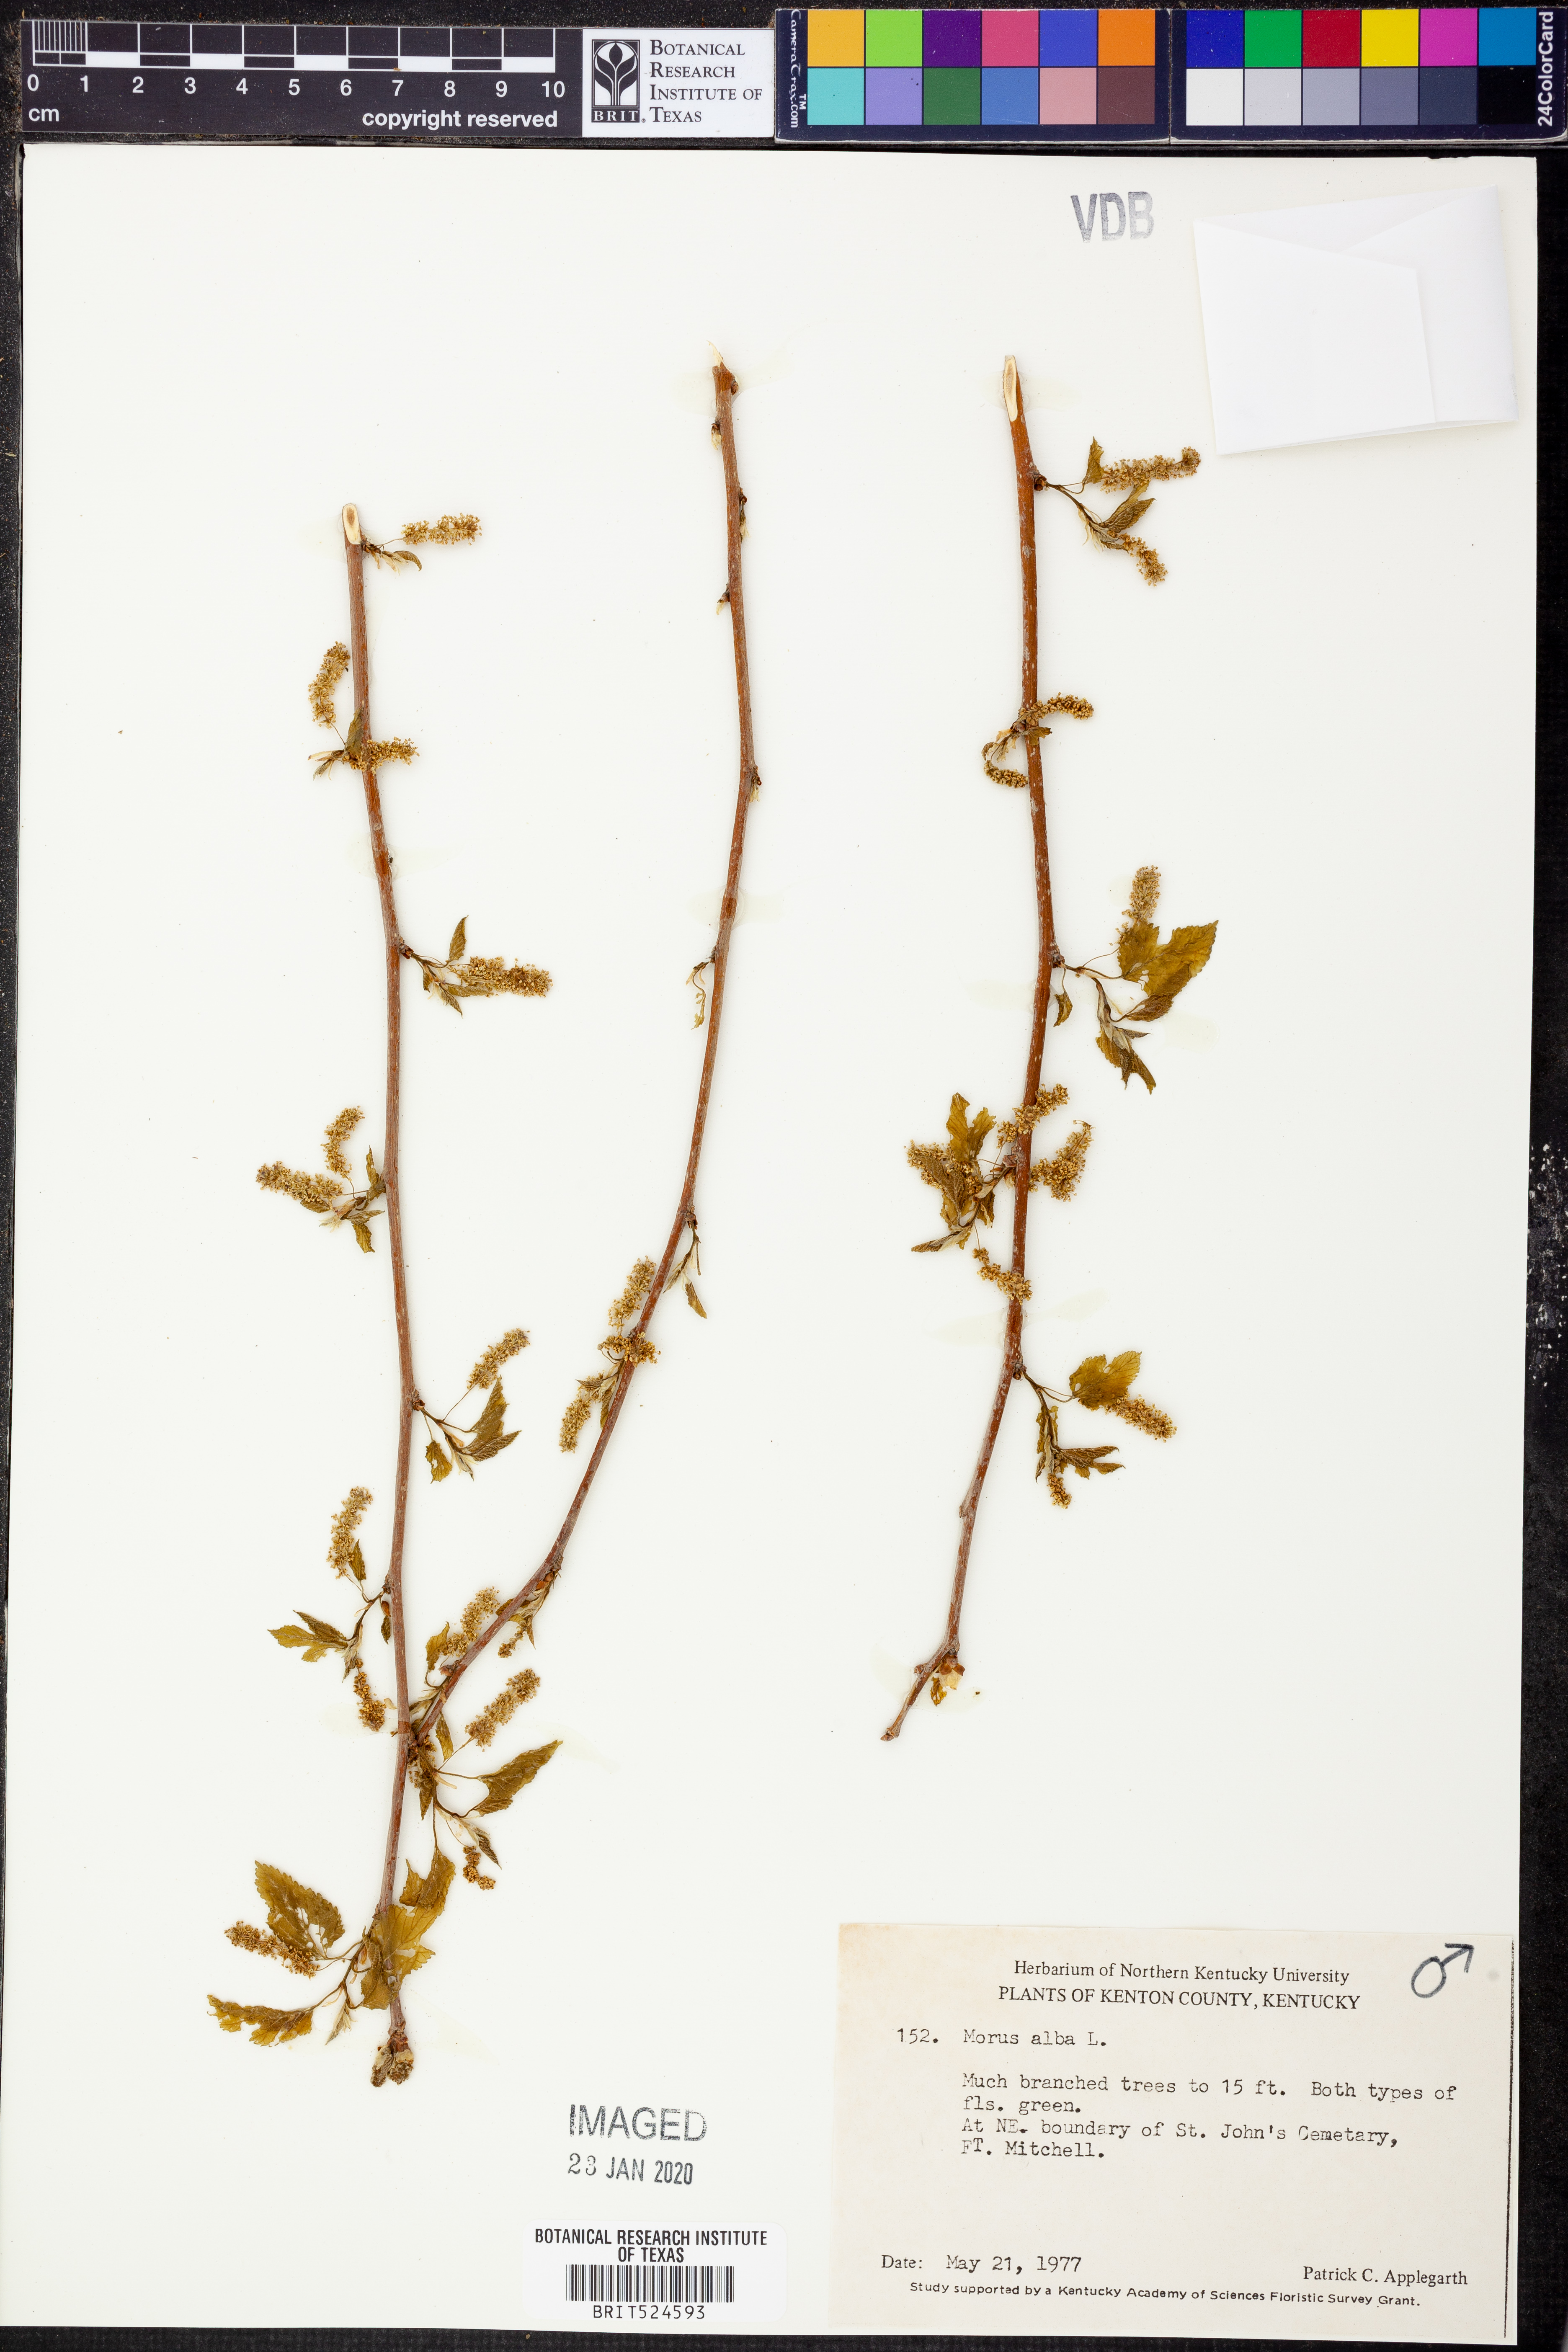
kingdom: Plantae
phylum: Tracheophyta
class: Magnoliopsida
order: Rosales
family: Moraceae
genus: Morus
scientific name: Morus alba
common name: White mulberry
